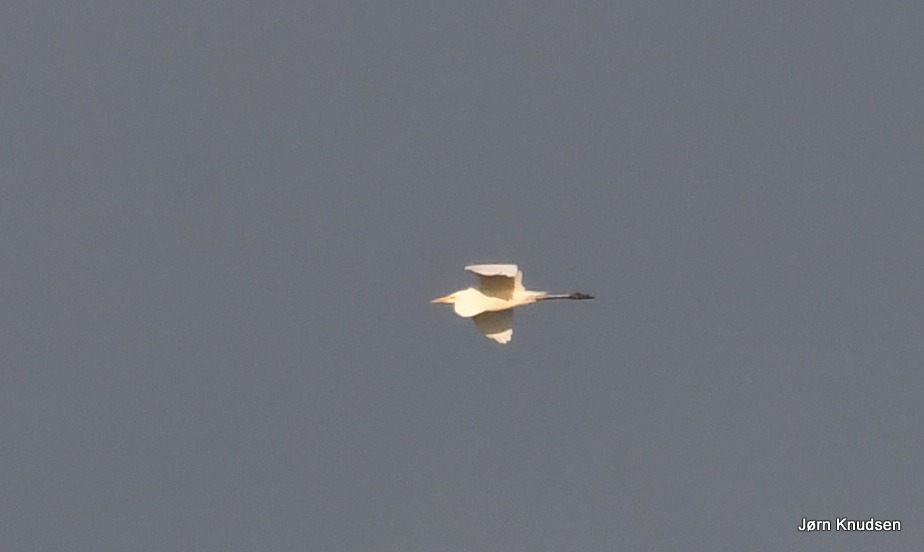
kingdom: Animalia
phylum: Chordata
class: Aves
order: Pelecaniformes
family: Ardeidae
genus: Ardea
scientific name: Ardea alba
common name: Sølvhejre
